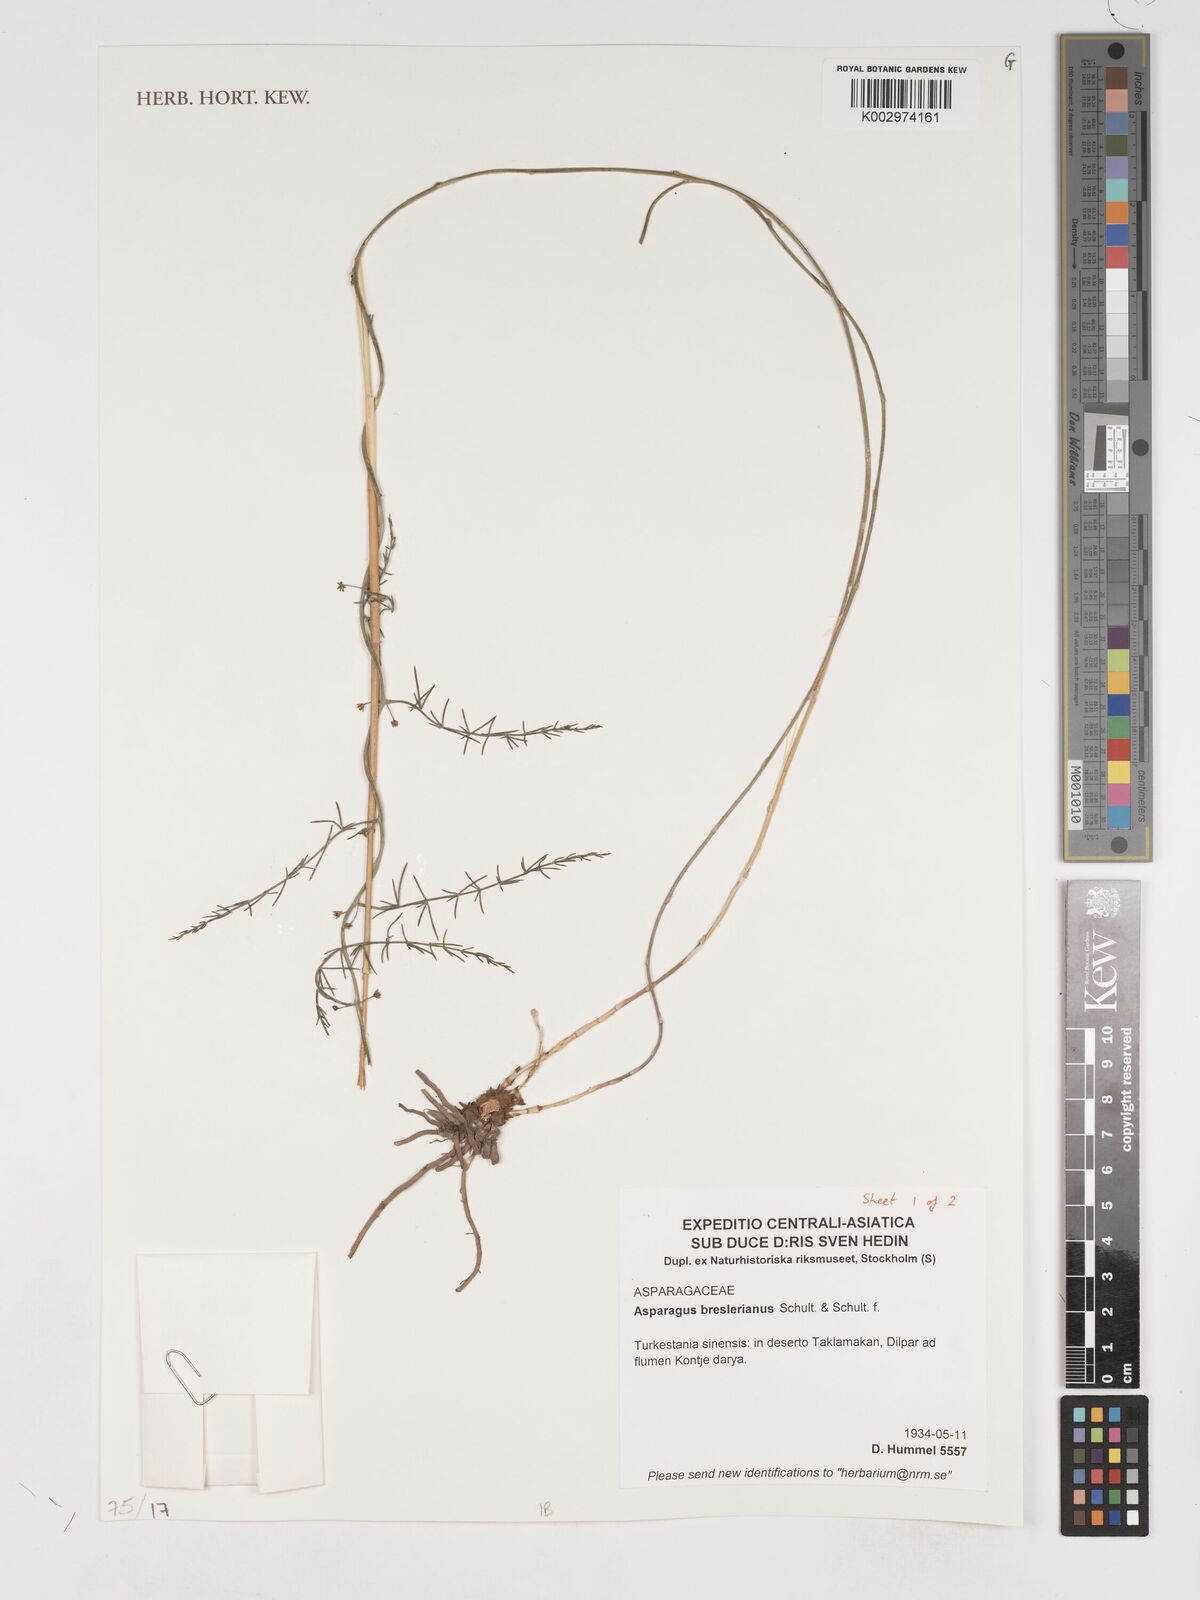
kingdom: Plantae
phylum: Tracheophyta
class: Liliopsida
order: Asparagales
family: Asparagaceae
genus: Asparagus
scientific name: Asparagus breslerianus
